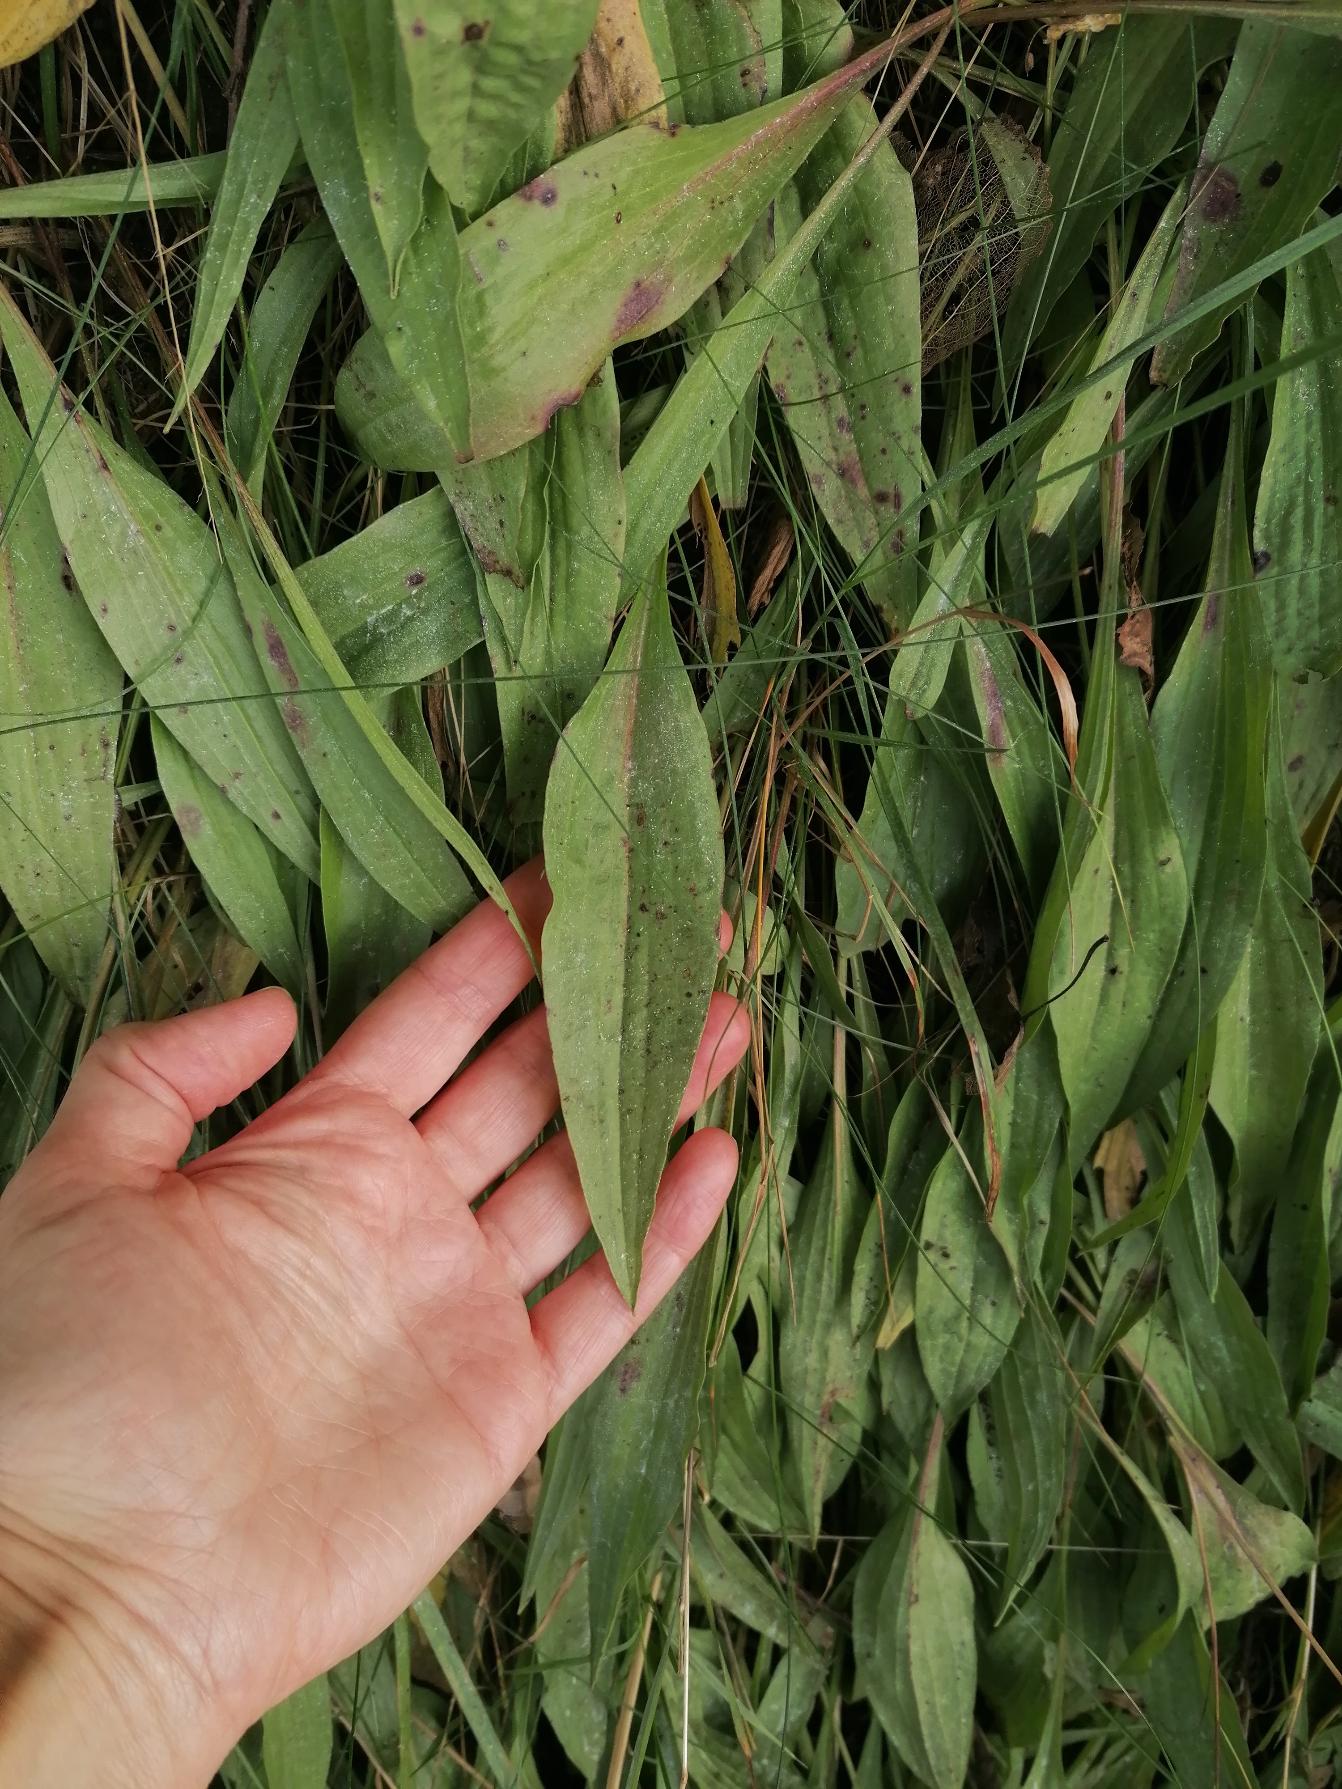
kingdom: Plantae
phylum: Tracheophyta
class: Magnoliopsida
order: Asterales
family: Asteraceae
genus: Scorzonera
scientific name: Scorzonera humilis
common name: Lav skorsoner
